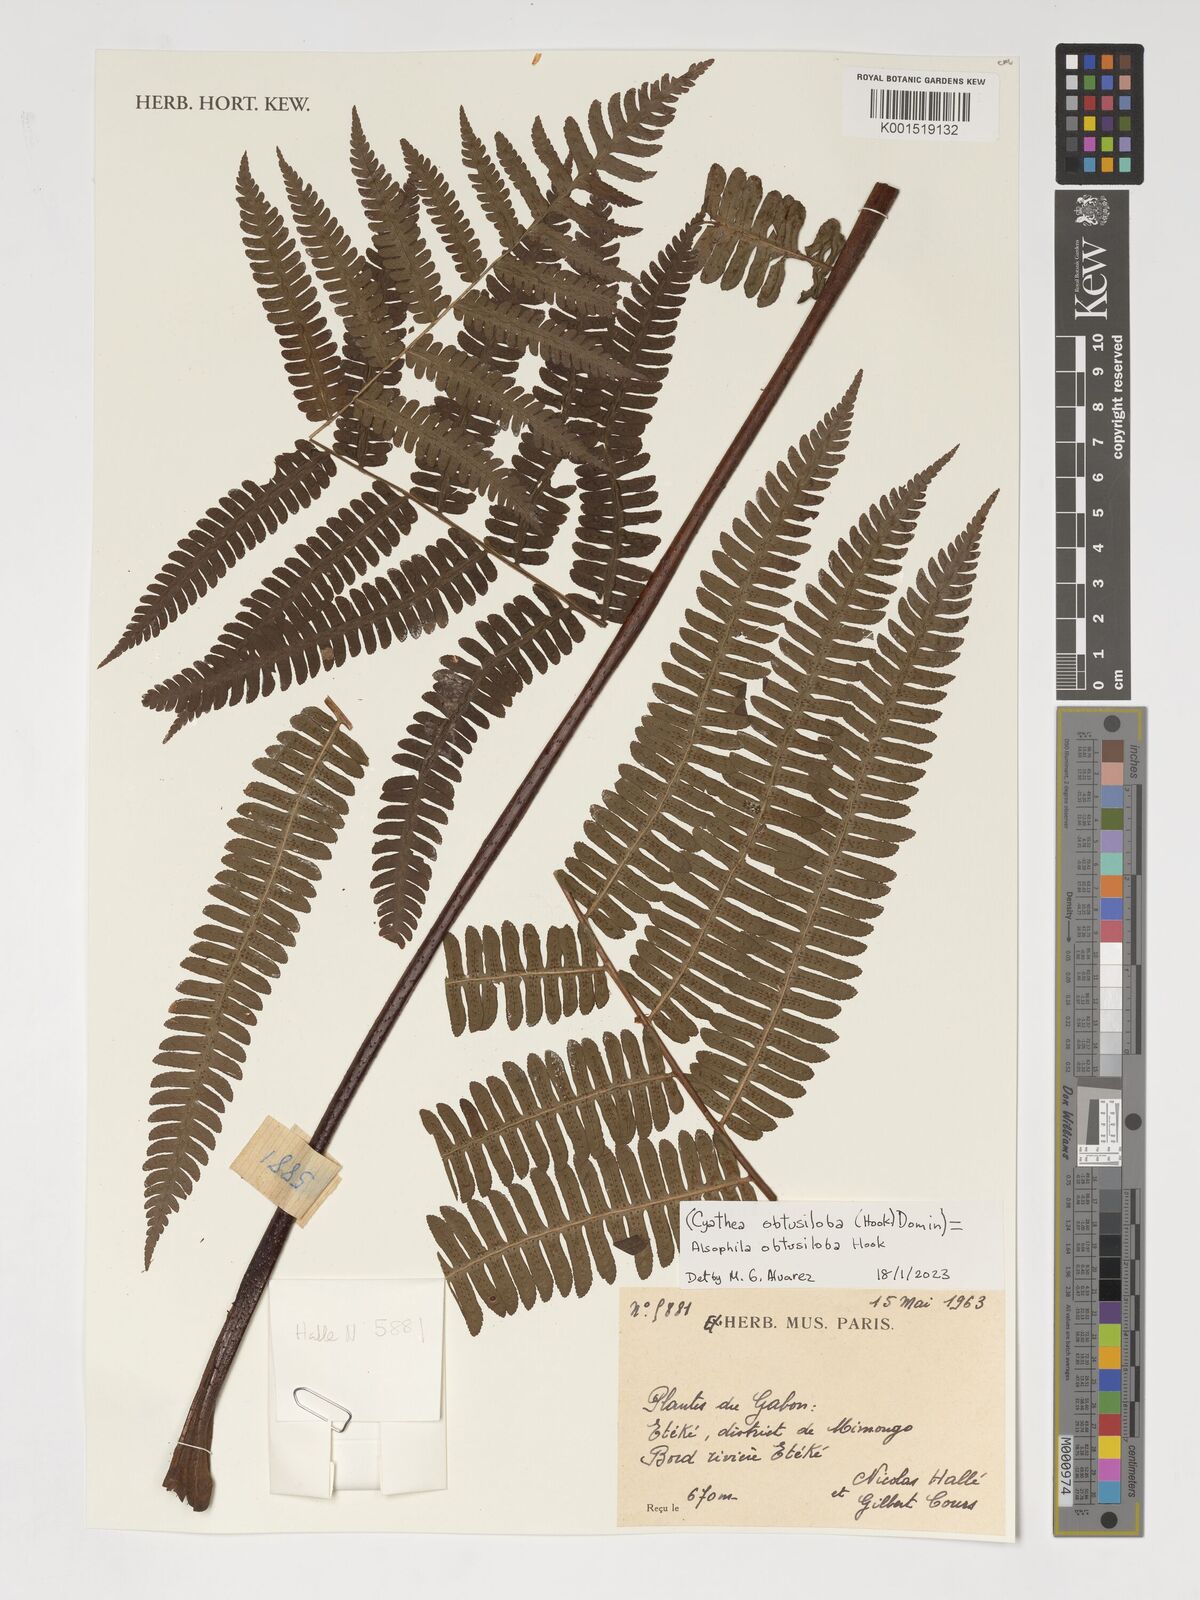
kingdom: Plantae
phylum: Tracheophyta
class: Polypodiopsida
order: Cyatheales
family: Cyatheaceae
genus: Alsophila
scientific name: Alsophila obtusiloba
